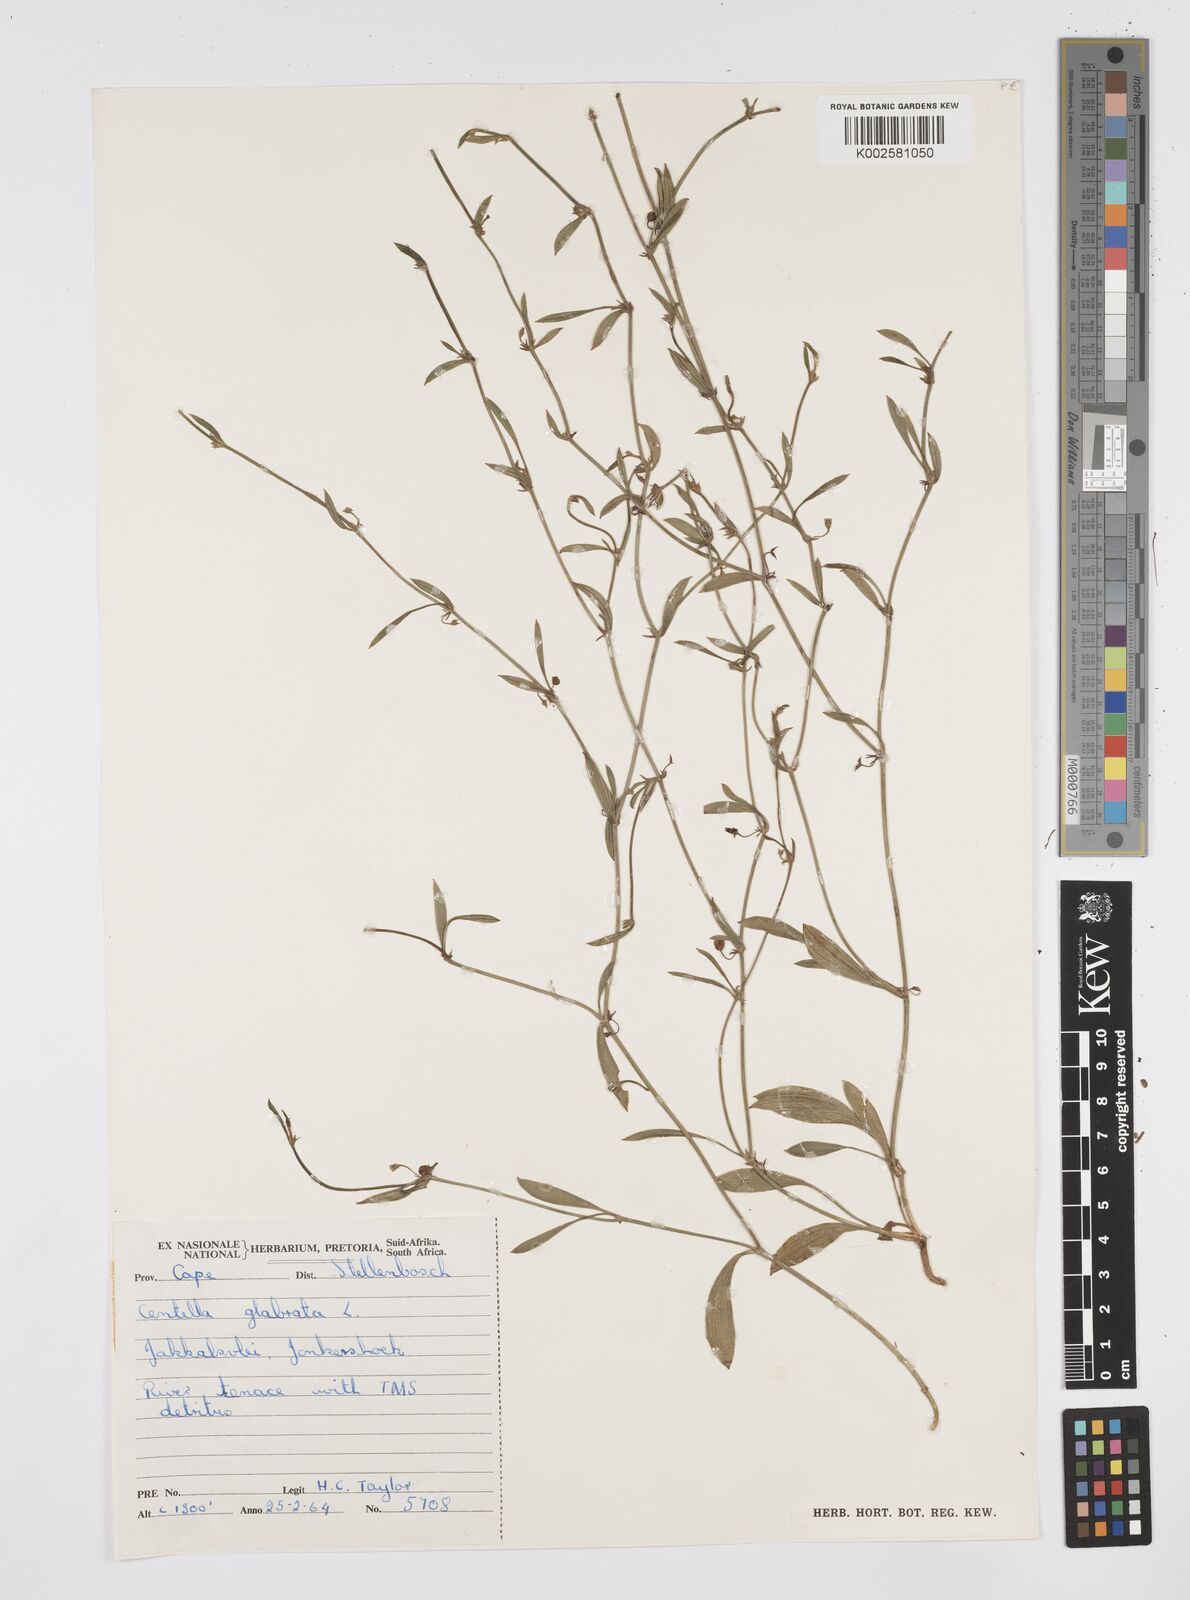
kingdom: Plantae
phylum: Tracheophyta
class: Magnoliopsida
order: Apiales
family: Apiaceae
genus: Centella
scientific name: Centella glabrata
